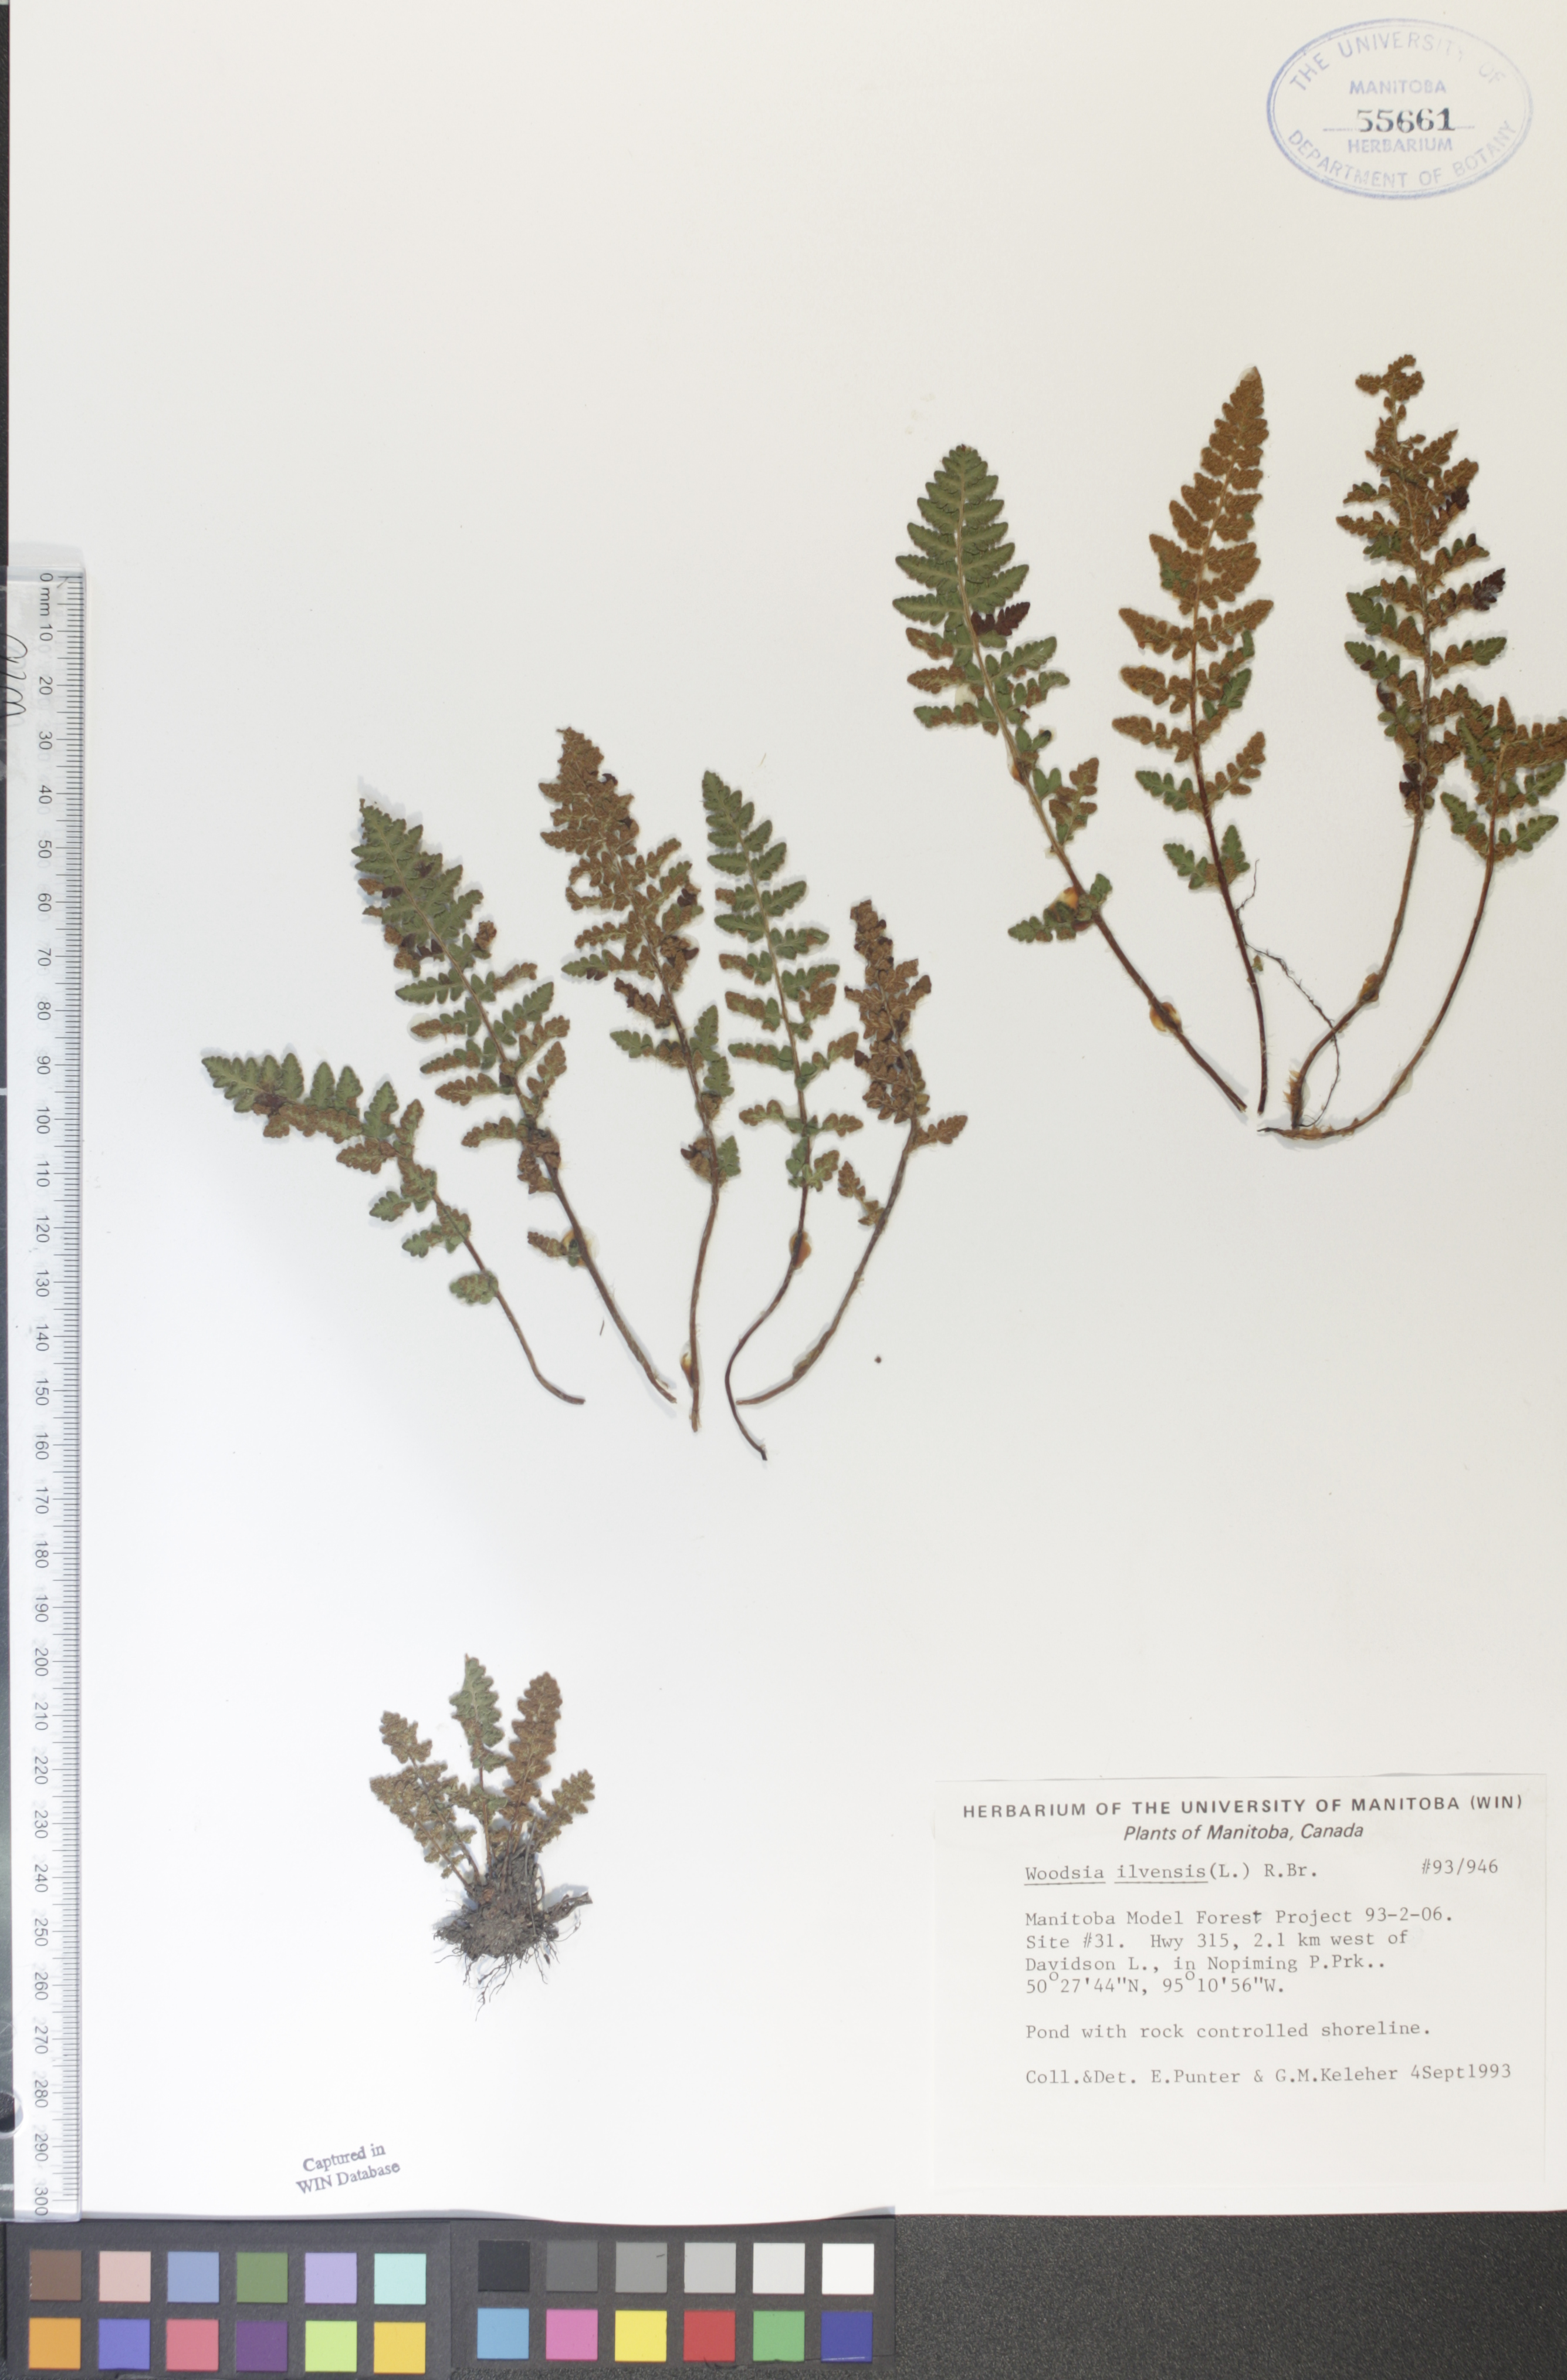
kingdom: Plantae
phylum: Tracheophyta
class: Polypodiopsida
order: Polypodiales
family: Woodsiaceae
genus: Woodsia
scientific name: Woodsia ilvensis
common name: Fragrant woodsia
